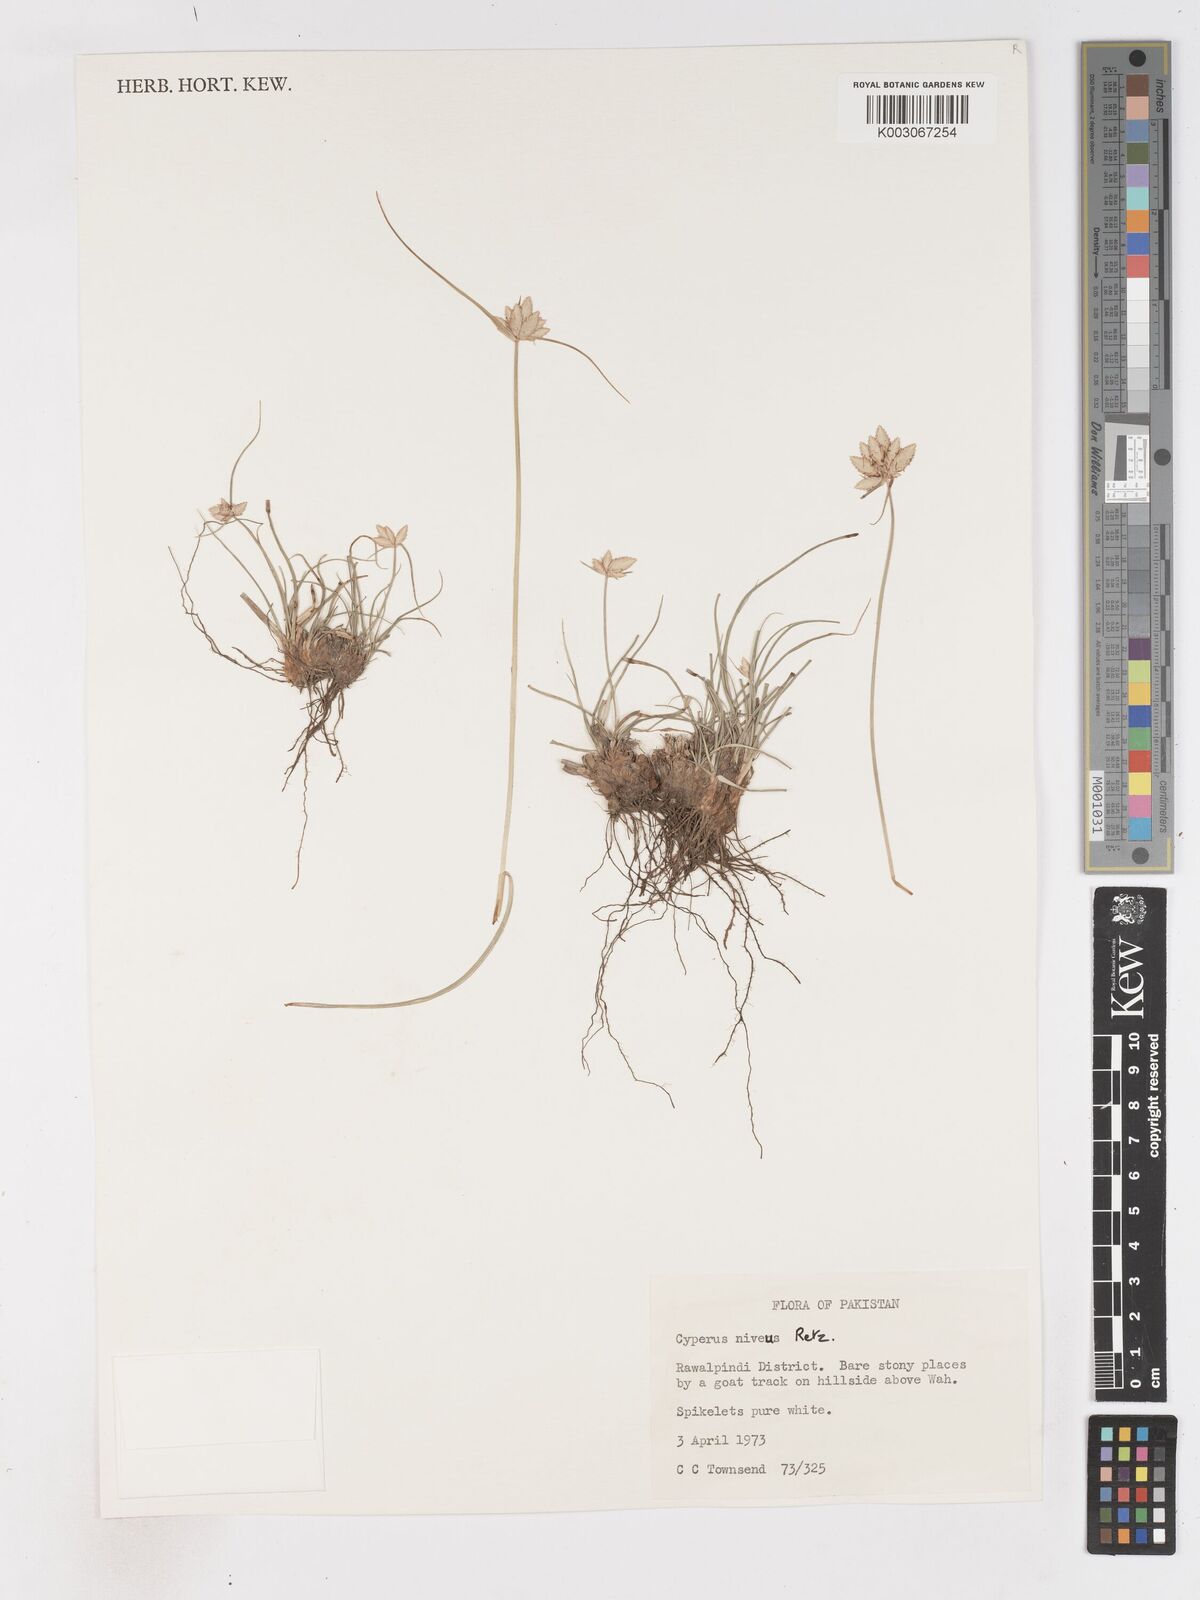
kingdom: Plantae
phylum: Tracheophyta
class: Liliopsida
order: Poales
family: Cyperaceae
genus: Cyperus
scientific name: Cyperus niveus
